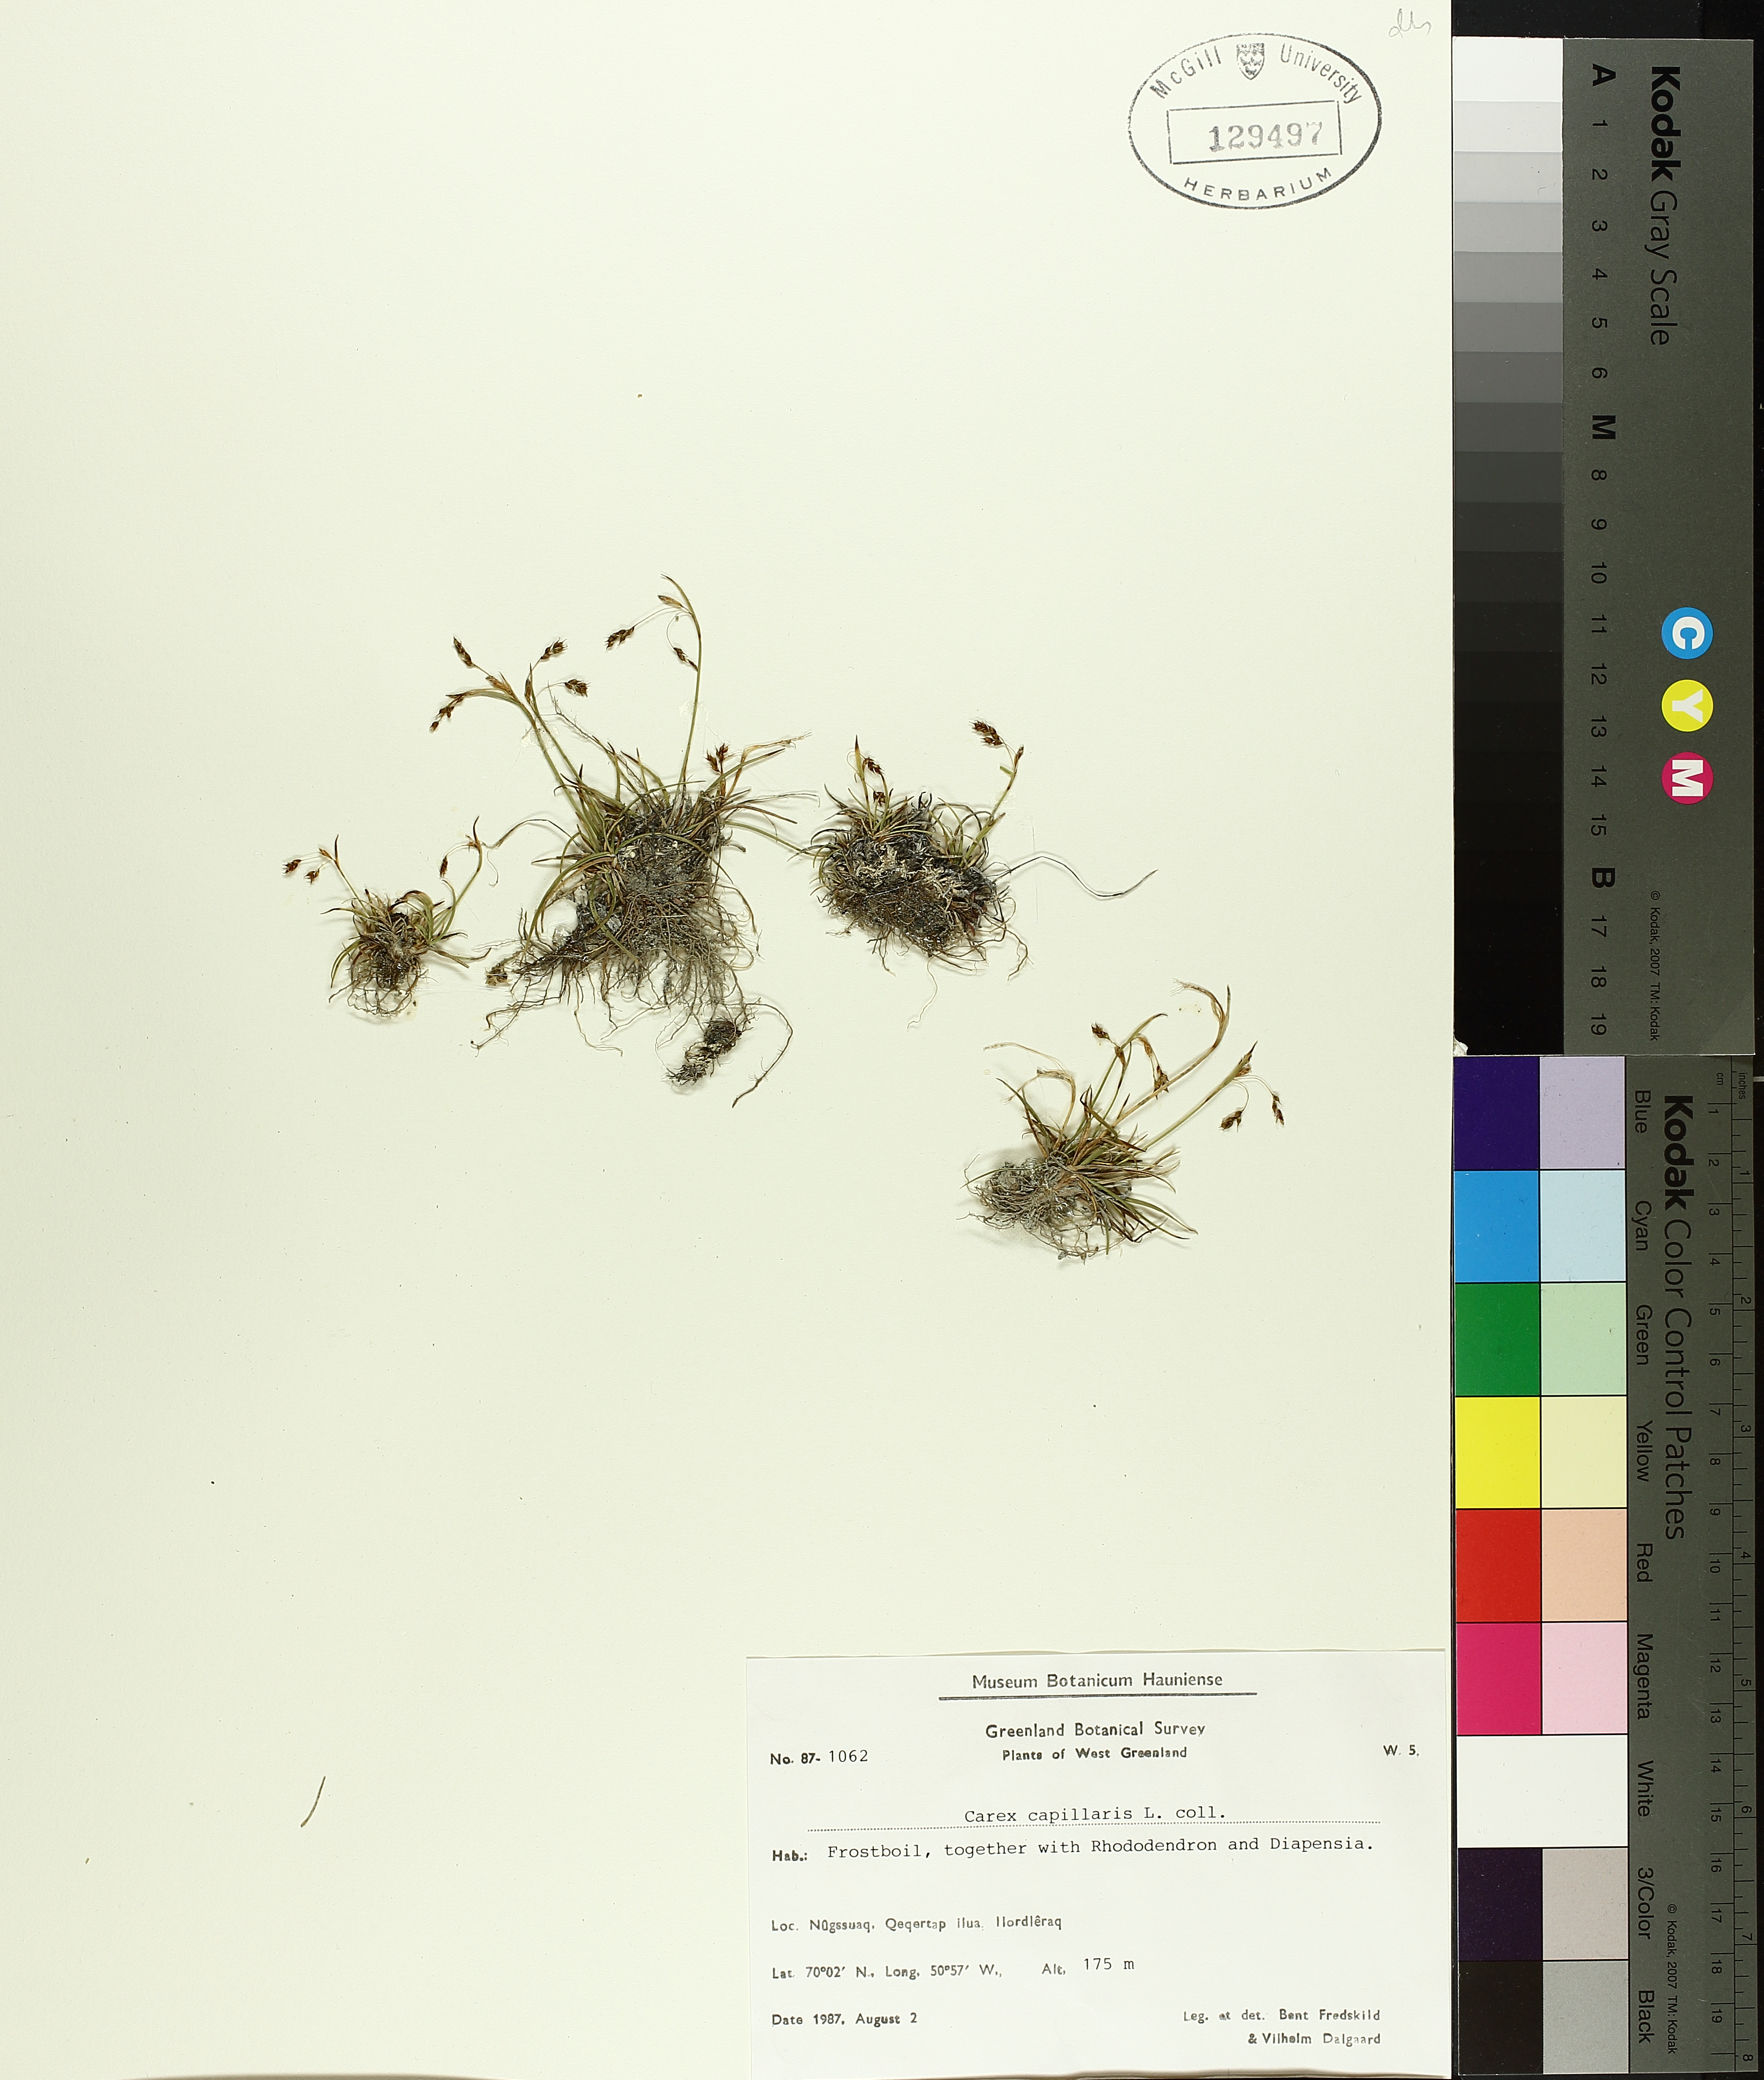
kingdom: Plantae
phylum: Tracheophyta
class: Liliopsida
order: Poales
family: Cyperaceae
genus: Carex
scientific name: Carex capillaris
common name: Hair sedge
